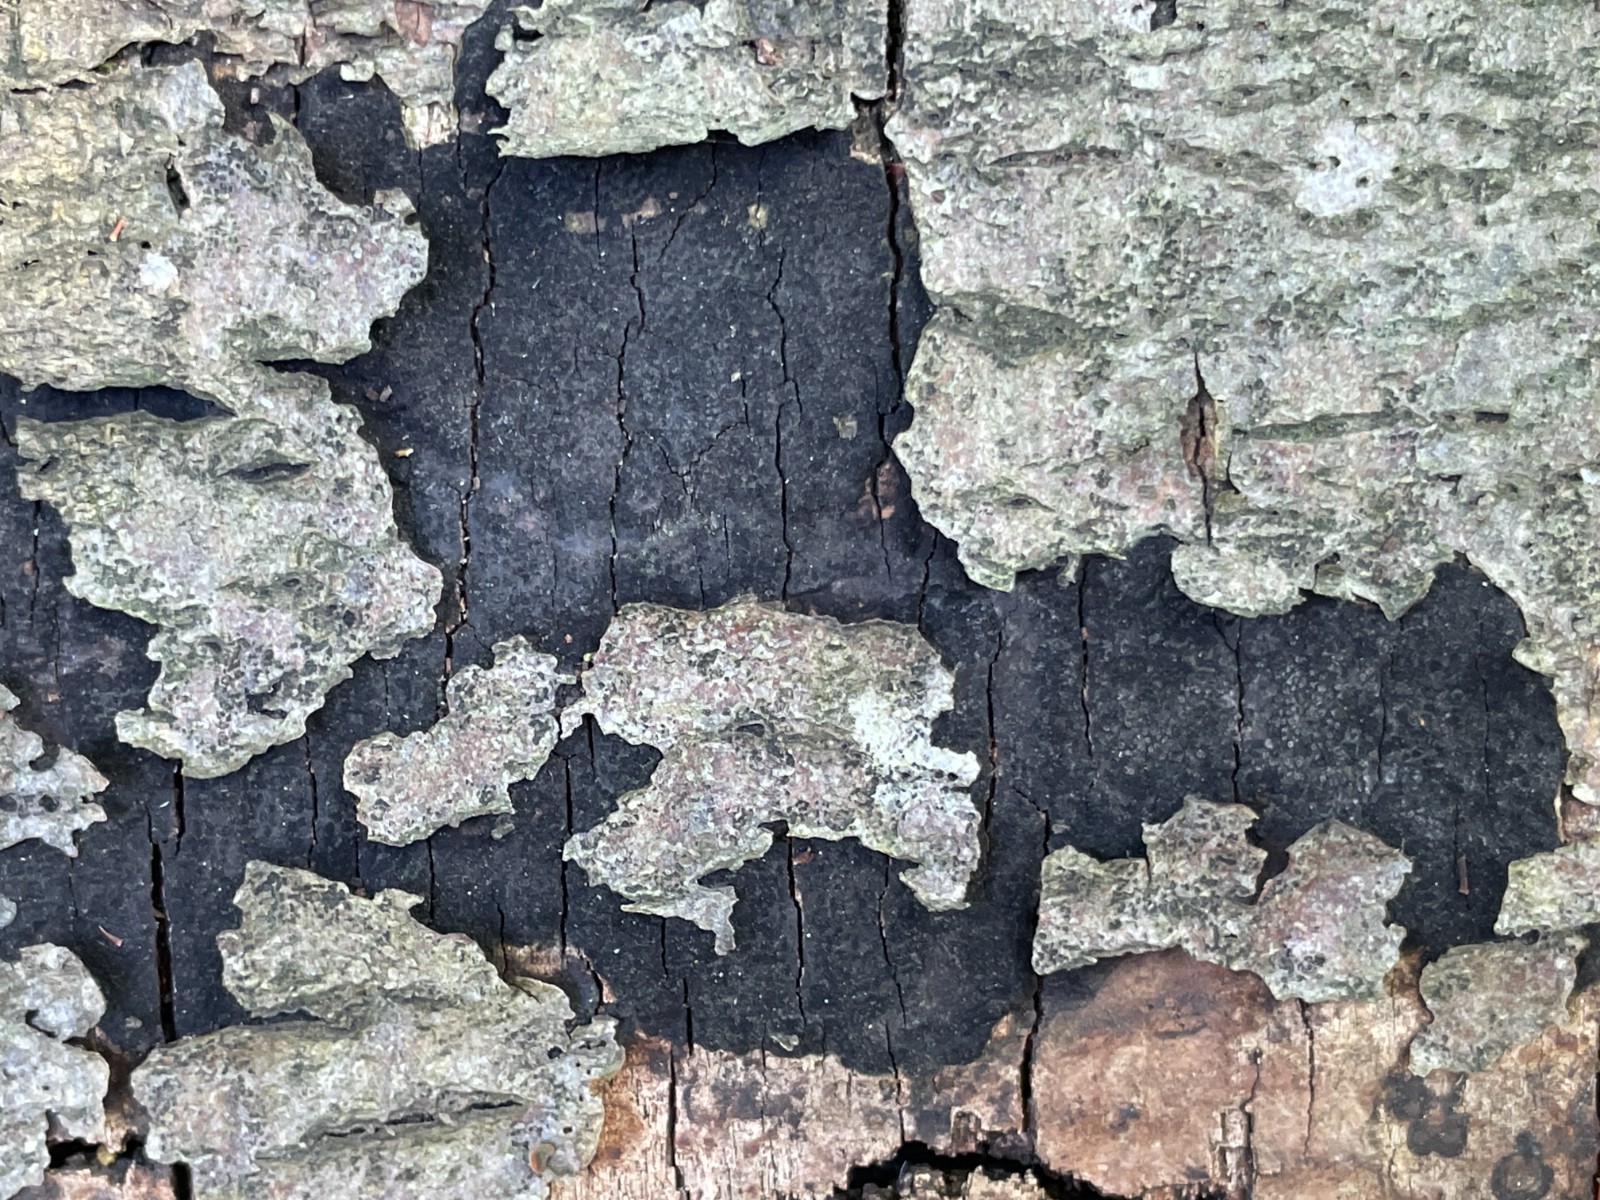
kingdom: Fungi
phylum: Ascomycota
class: Sordariomycetes
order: Xylariales
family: Diatrypaceae
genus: Eutypa
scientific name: Eutypa spinosa
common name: grov kulskorpe
